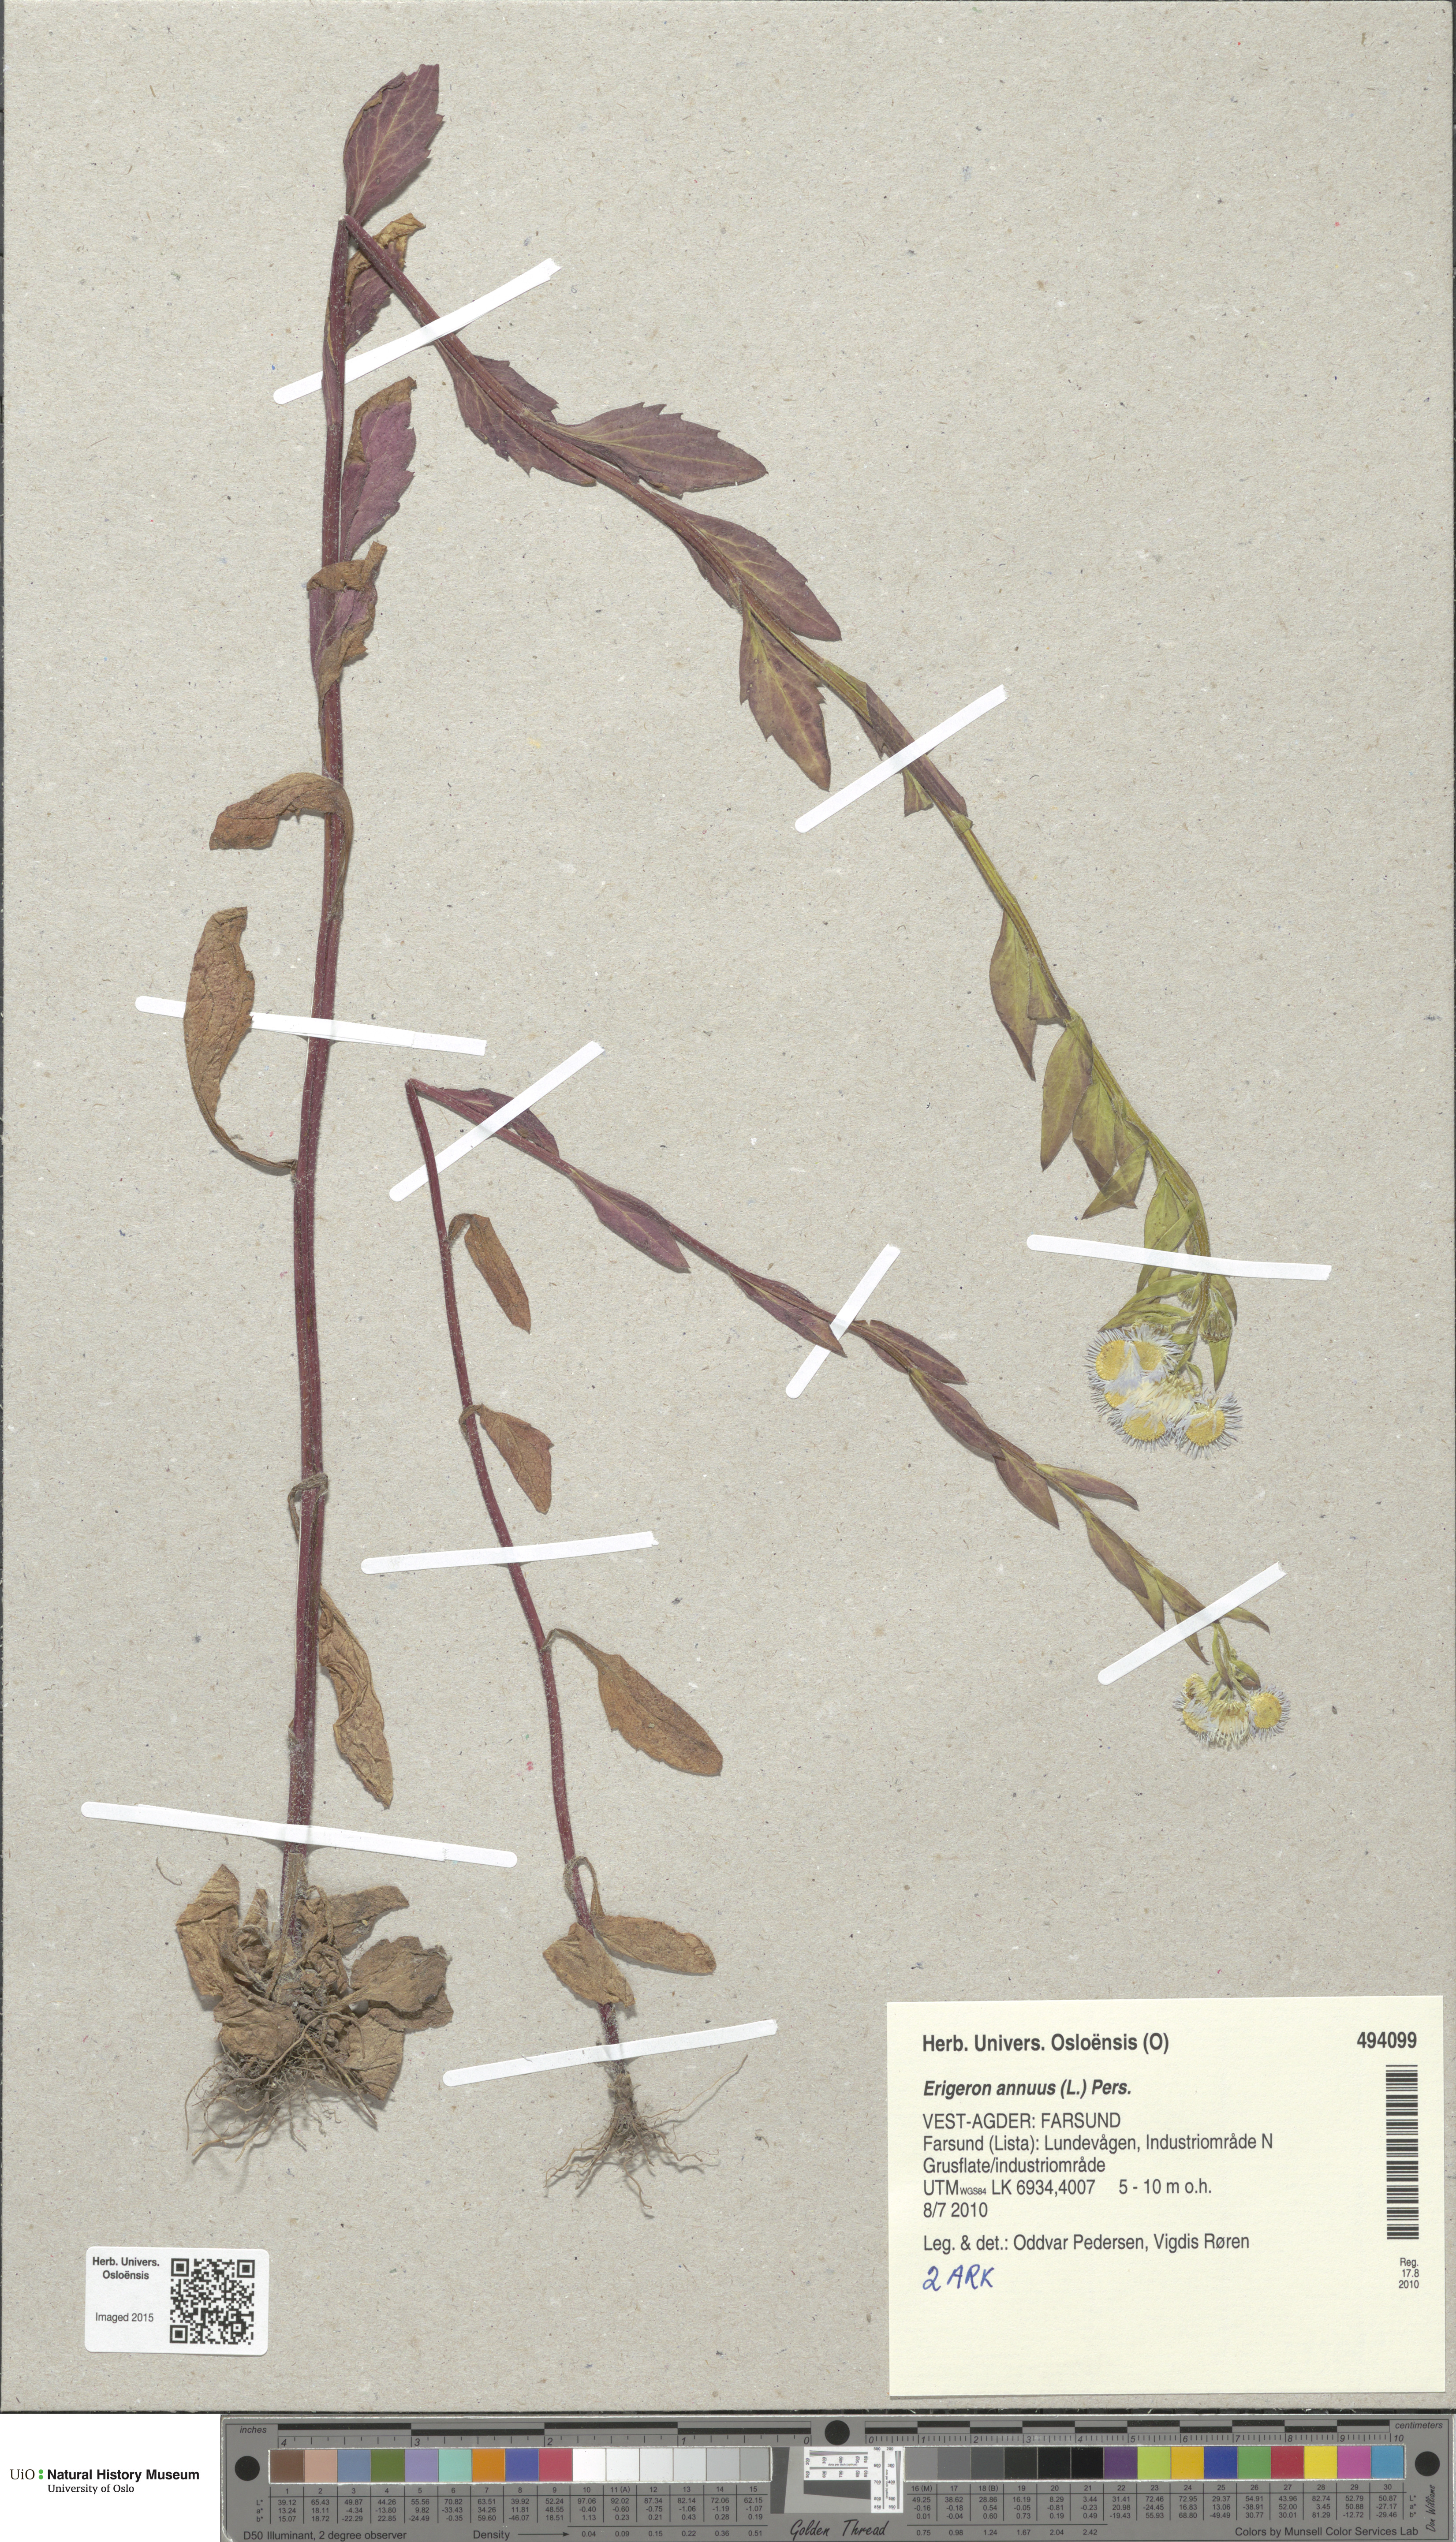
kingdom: Plantae
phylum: Tracheophyta
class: Magnoliopsida
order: Asterales
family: Asteraceae
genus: Erigeron
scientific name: Erigeron annuus
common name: Tall fleabane
